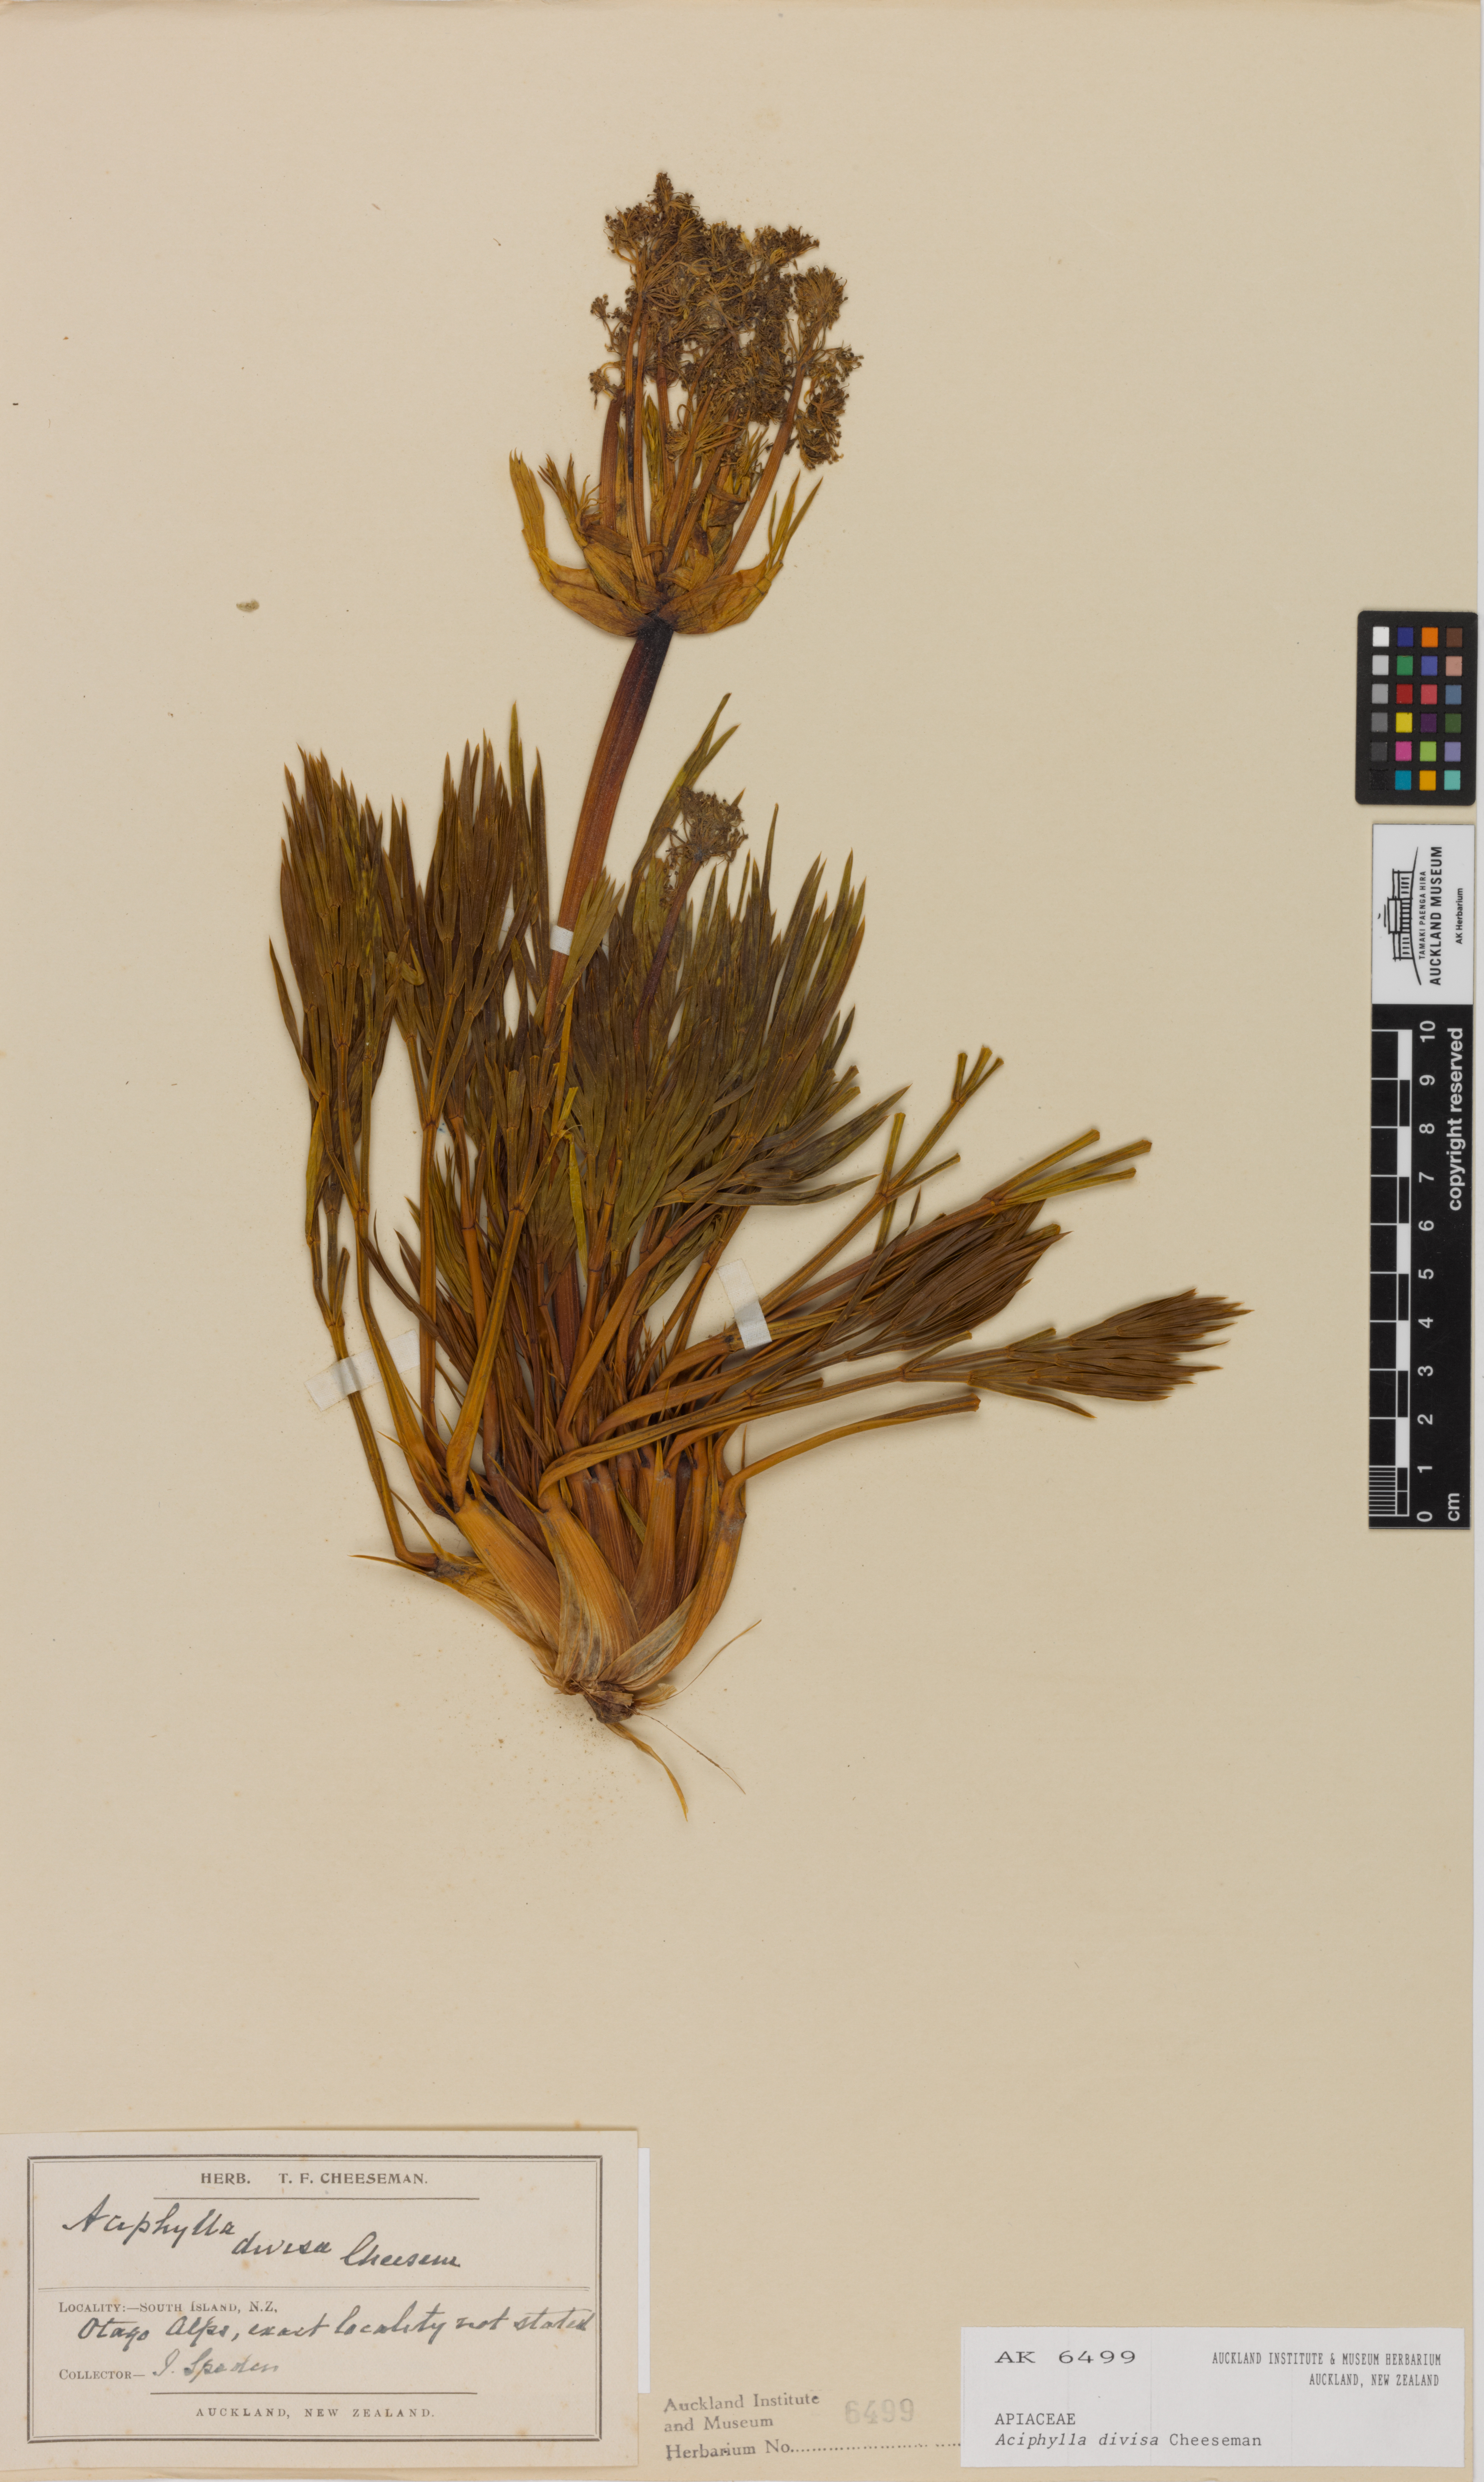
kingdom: Plantae
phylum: Tracheophyta
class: Magnoliopsida
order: Apiales
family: Apiaceae
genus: Aciphylla
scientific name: Aciphylla divisa
